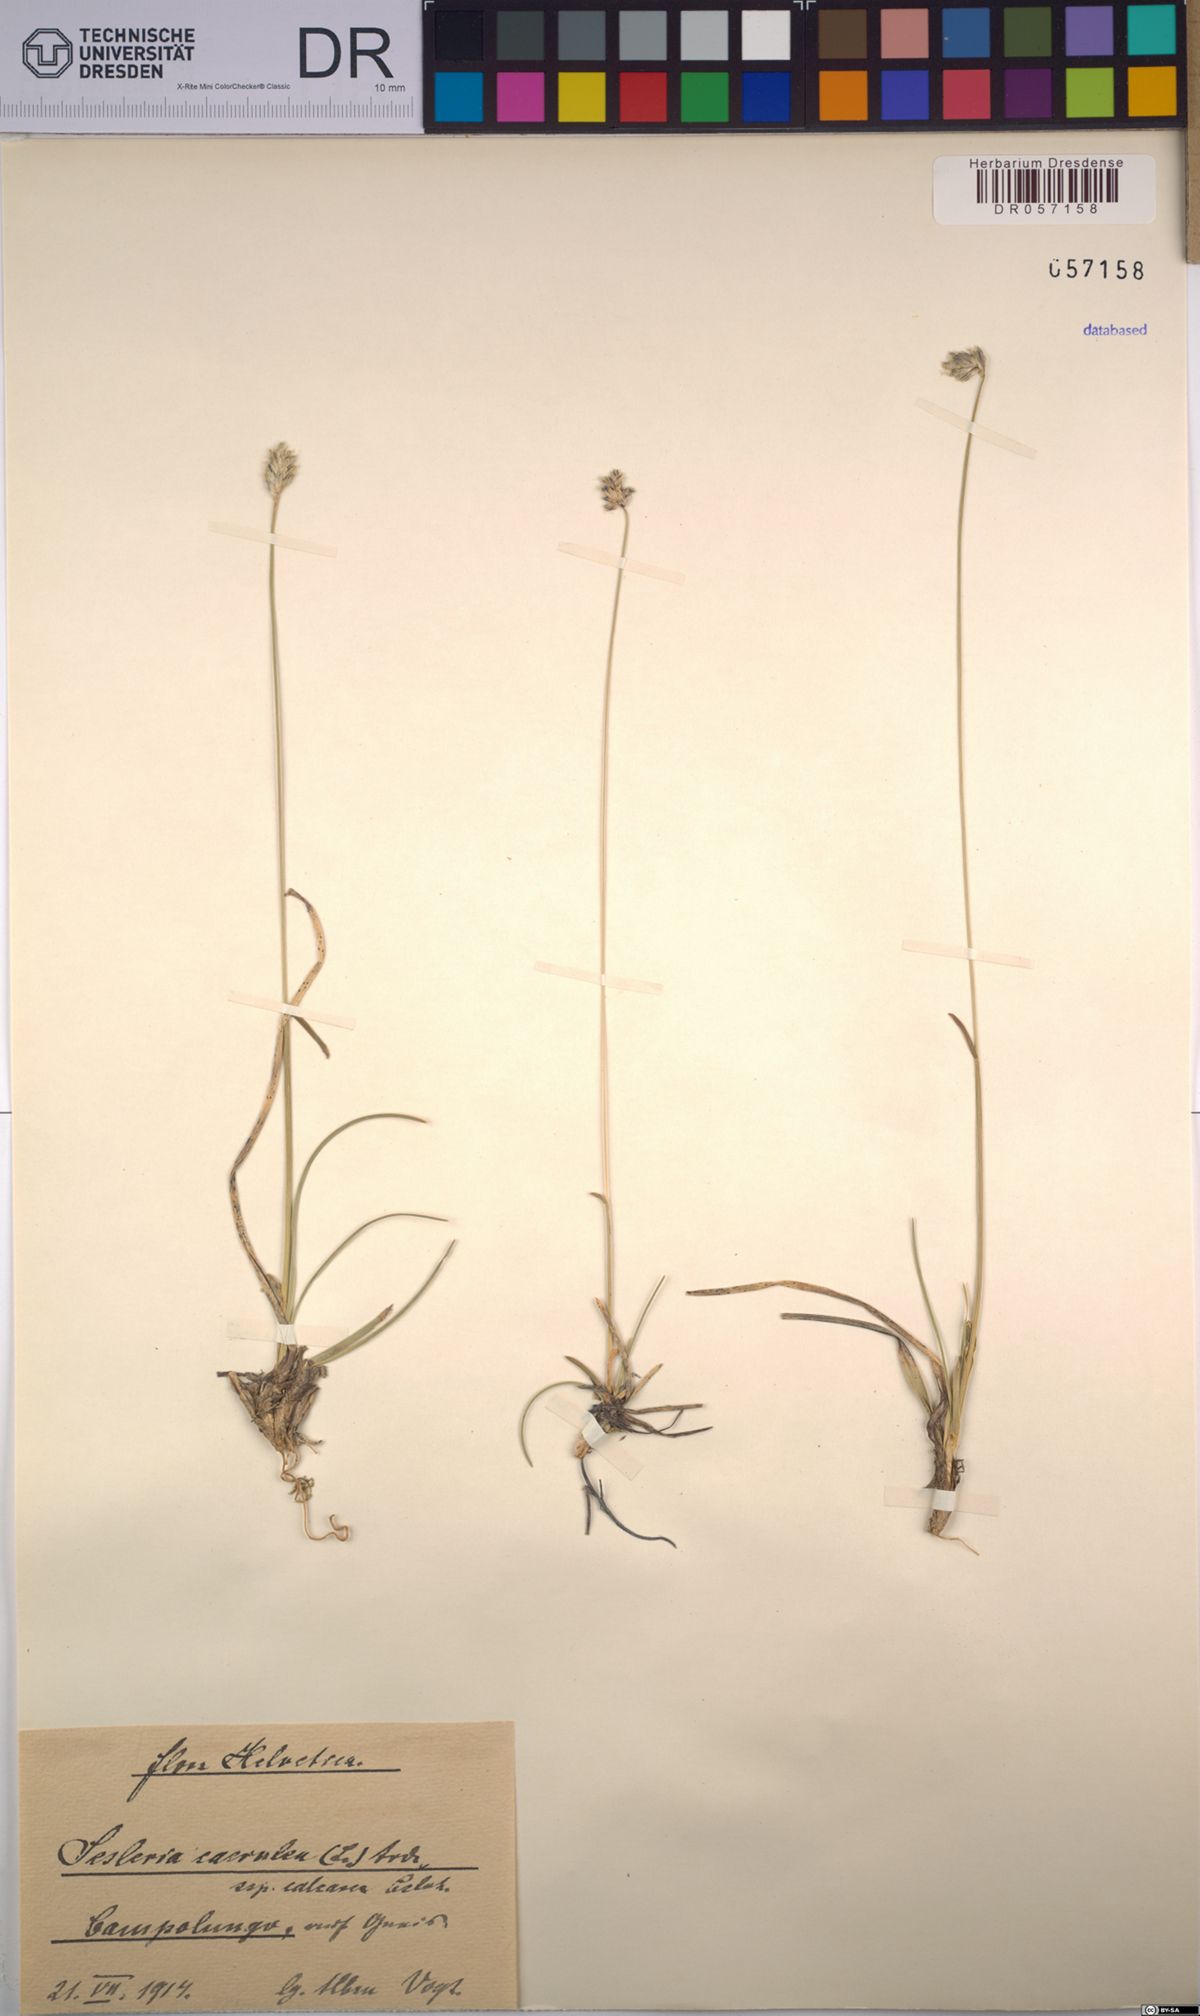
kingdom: Plantae
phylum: Tracheophyta
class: Liliopsida
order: Poales
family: Poaceae
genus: Sesleria
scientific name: Sesleria caerulea
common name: Blue moor-grass
